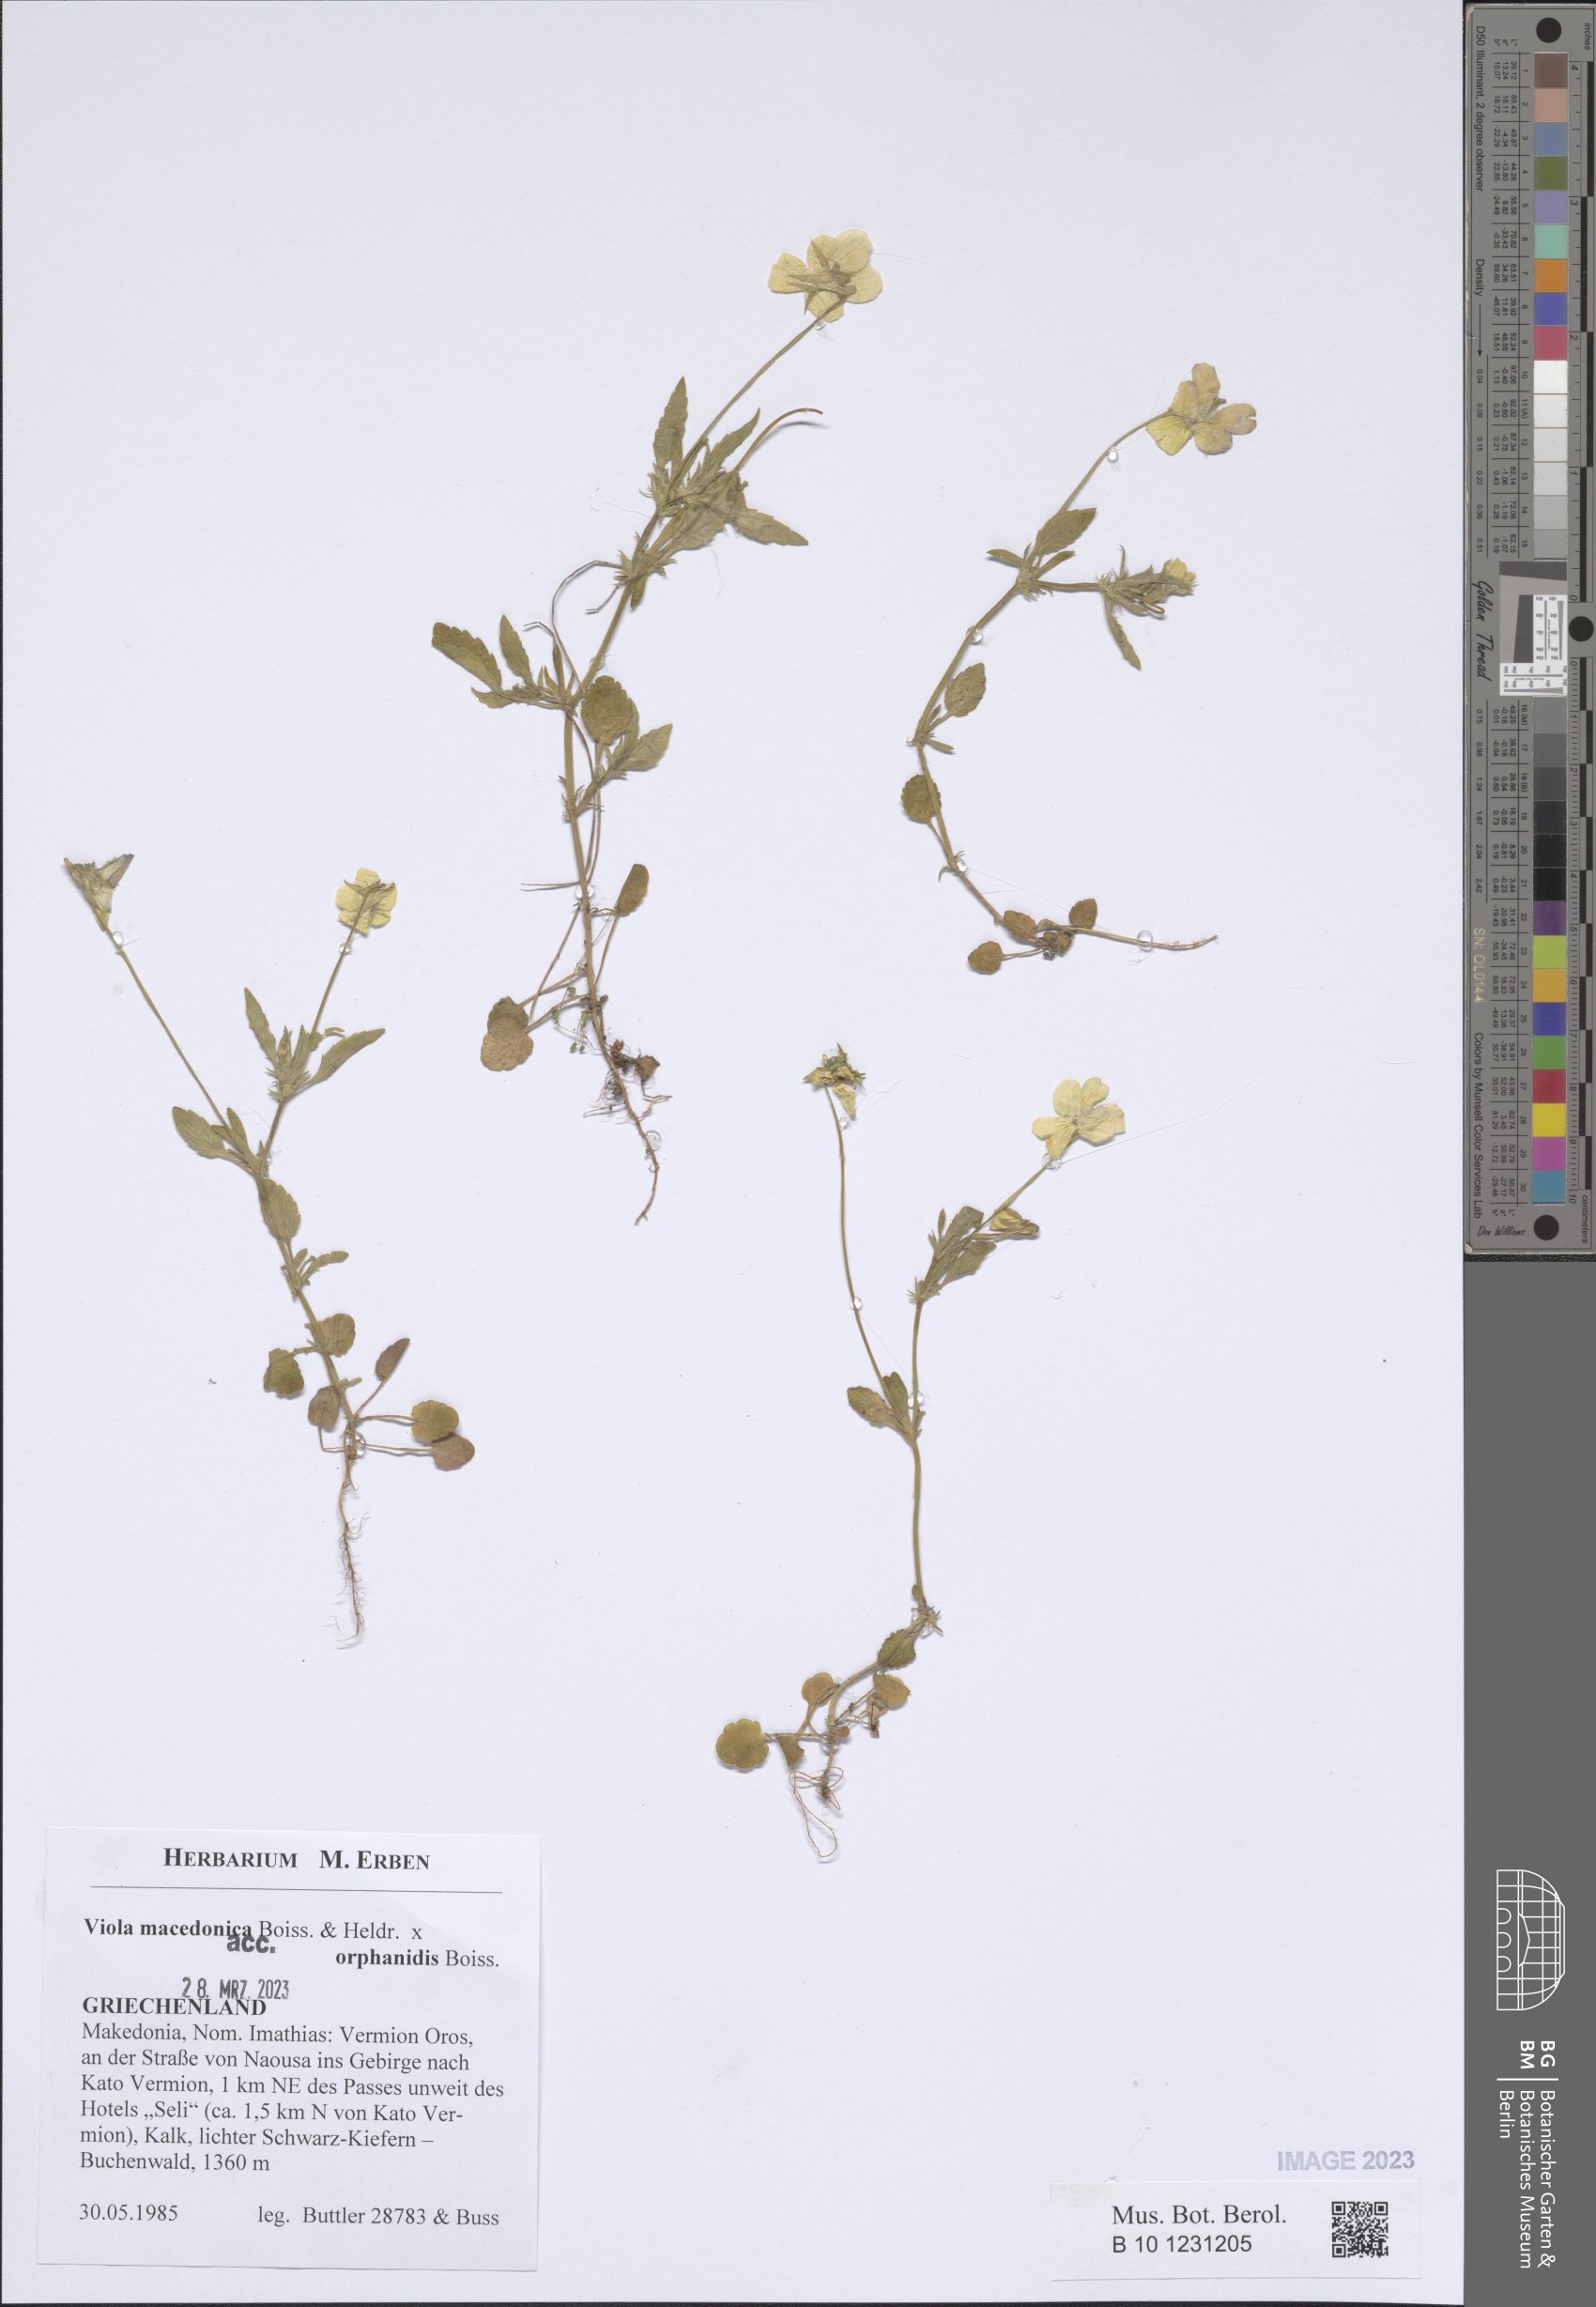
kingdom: Plantae
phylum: Tracheophyta
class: Magnoliopsida
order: Malpighiales
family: Violaceae
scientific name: Violaceae
